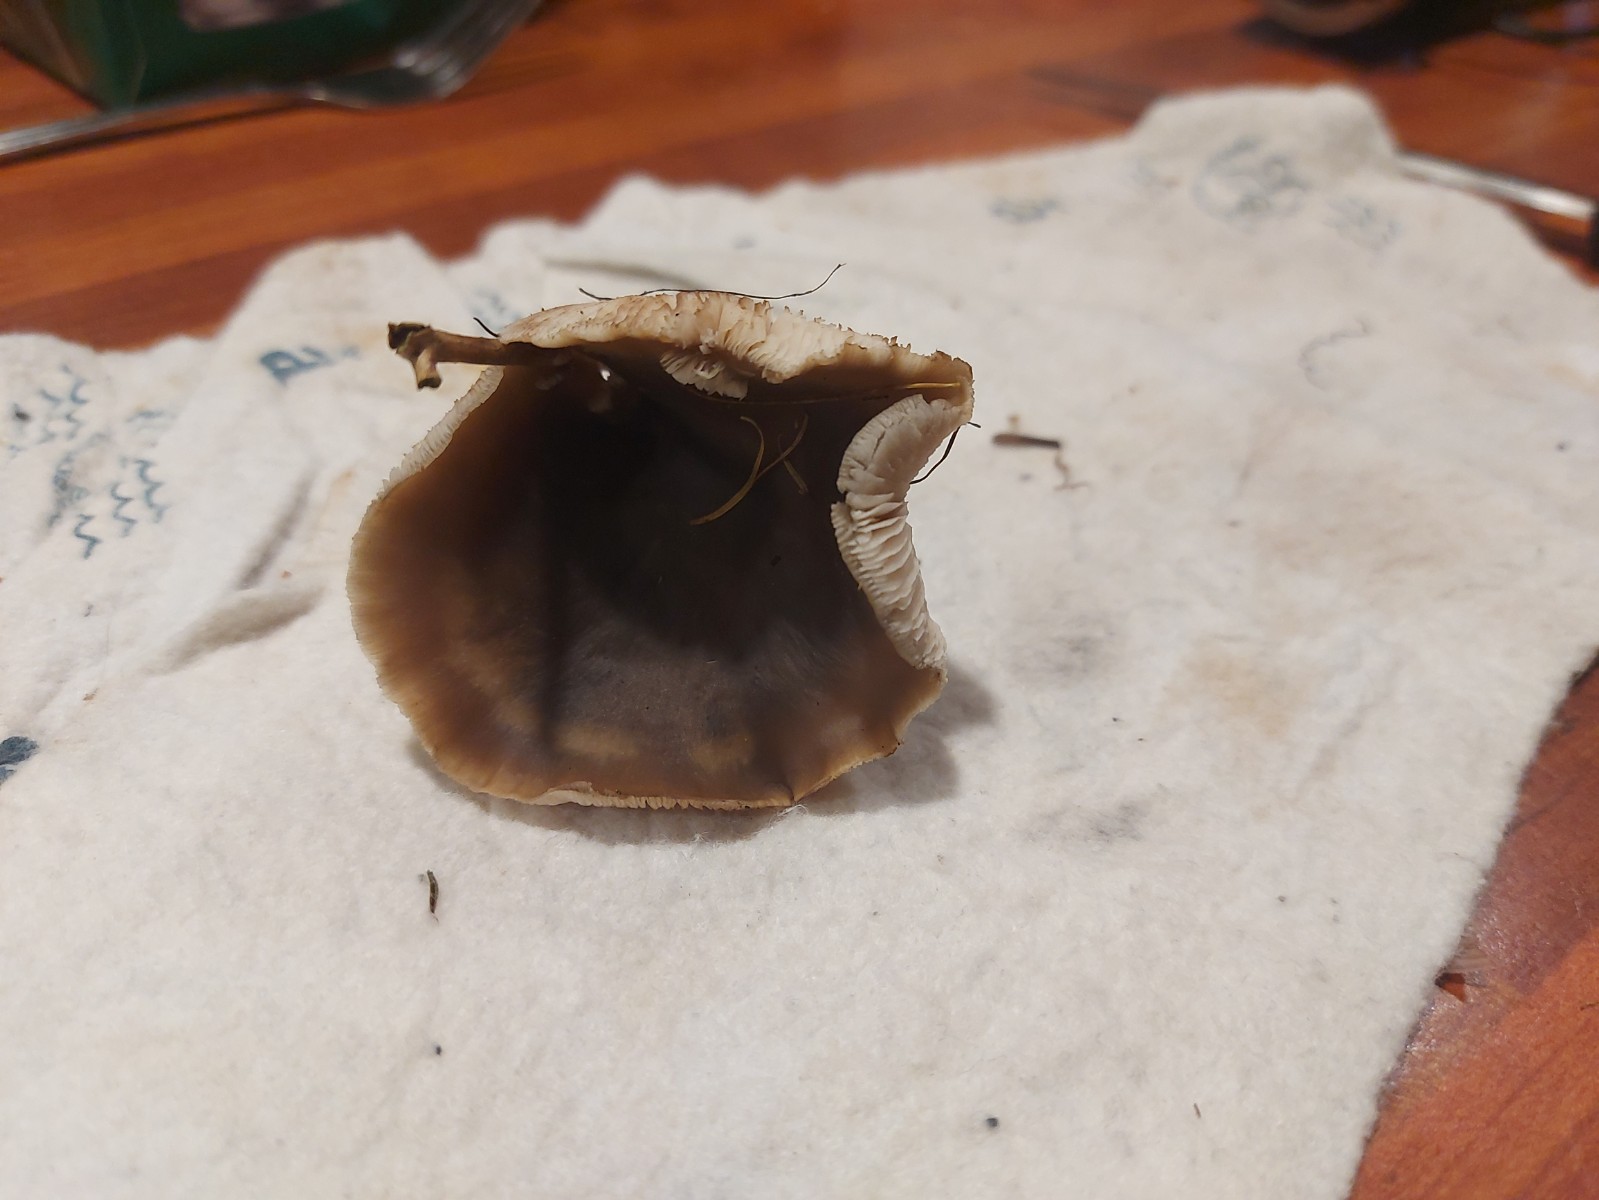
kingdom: Fungi
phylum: Basidiomycota
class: Agaricomycetes
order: Agaricales
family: Omphalotaceae
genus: Rhodocollybia
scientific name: Rhodocollybia asema
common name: horngrå fladhat
